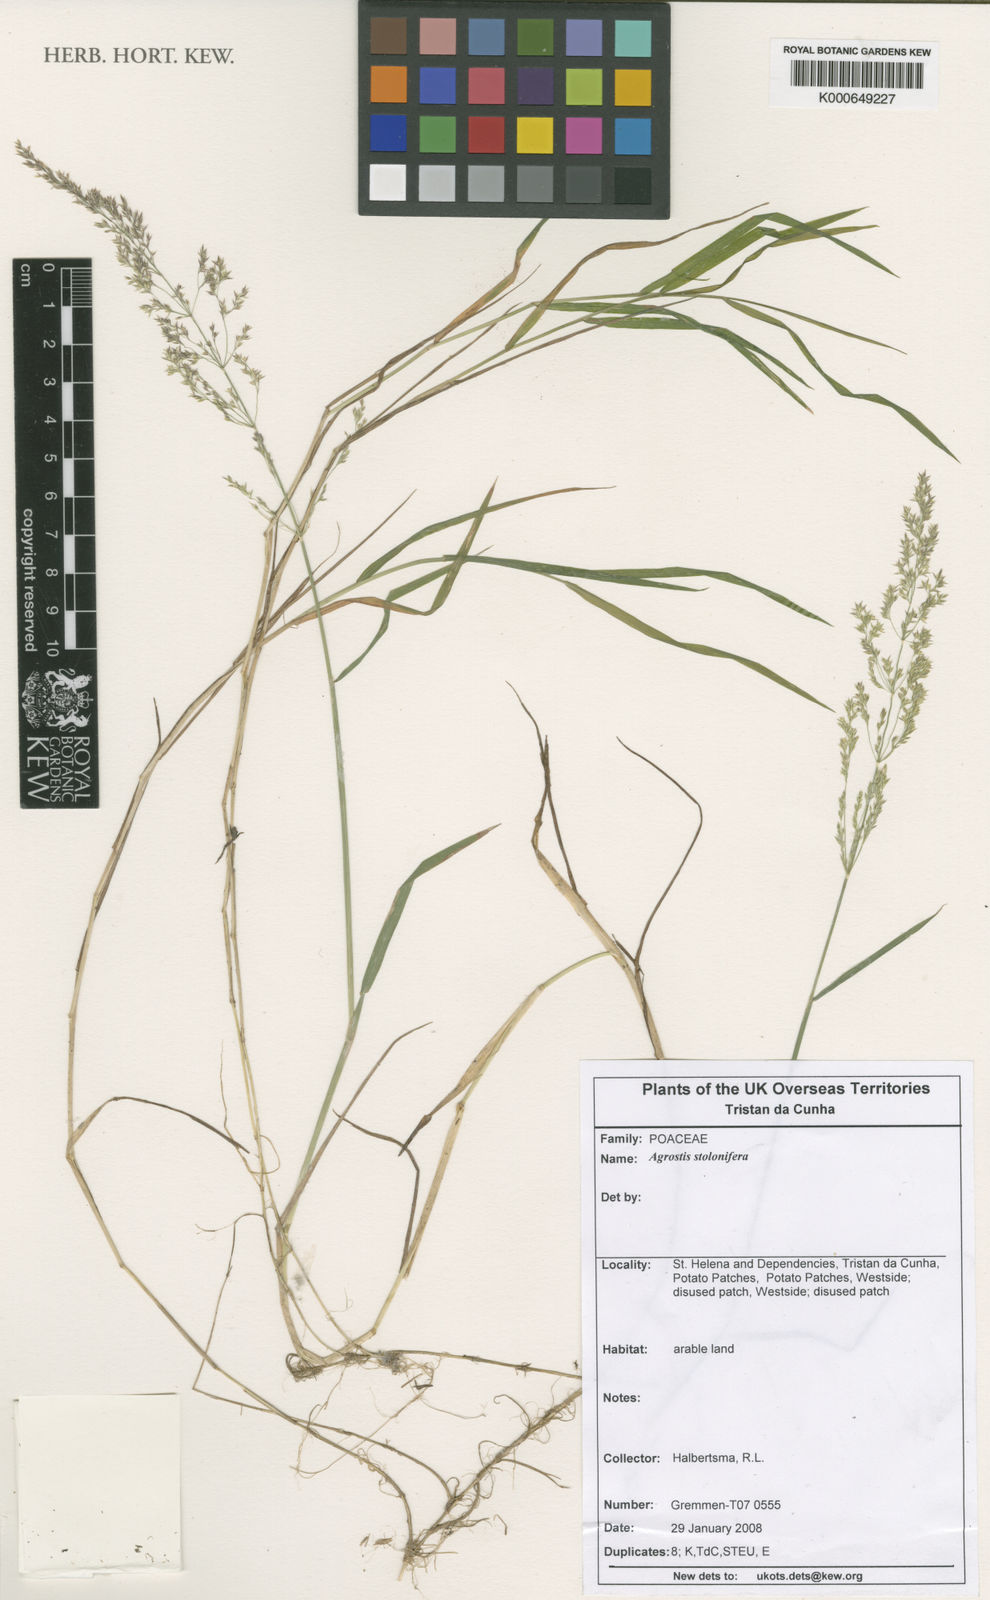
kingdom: Plantae
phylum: Tracheophyta
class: Liliopsida
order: Poales
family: Poaceae
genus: Agrostis
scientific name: Agrostis stolonifera
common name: Creeping bentgrass
